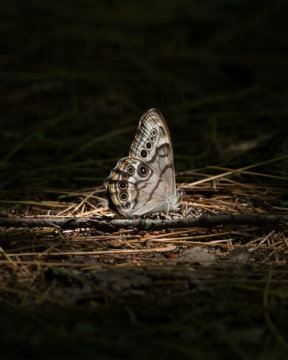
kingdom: Animalia
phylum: Arthropoda
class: Insecta
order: Lepidoptera
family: Nymphalidae
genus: Lethe
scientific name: Lethe anthedon
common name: Northern Pearly-Eye
